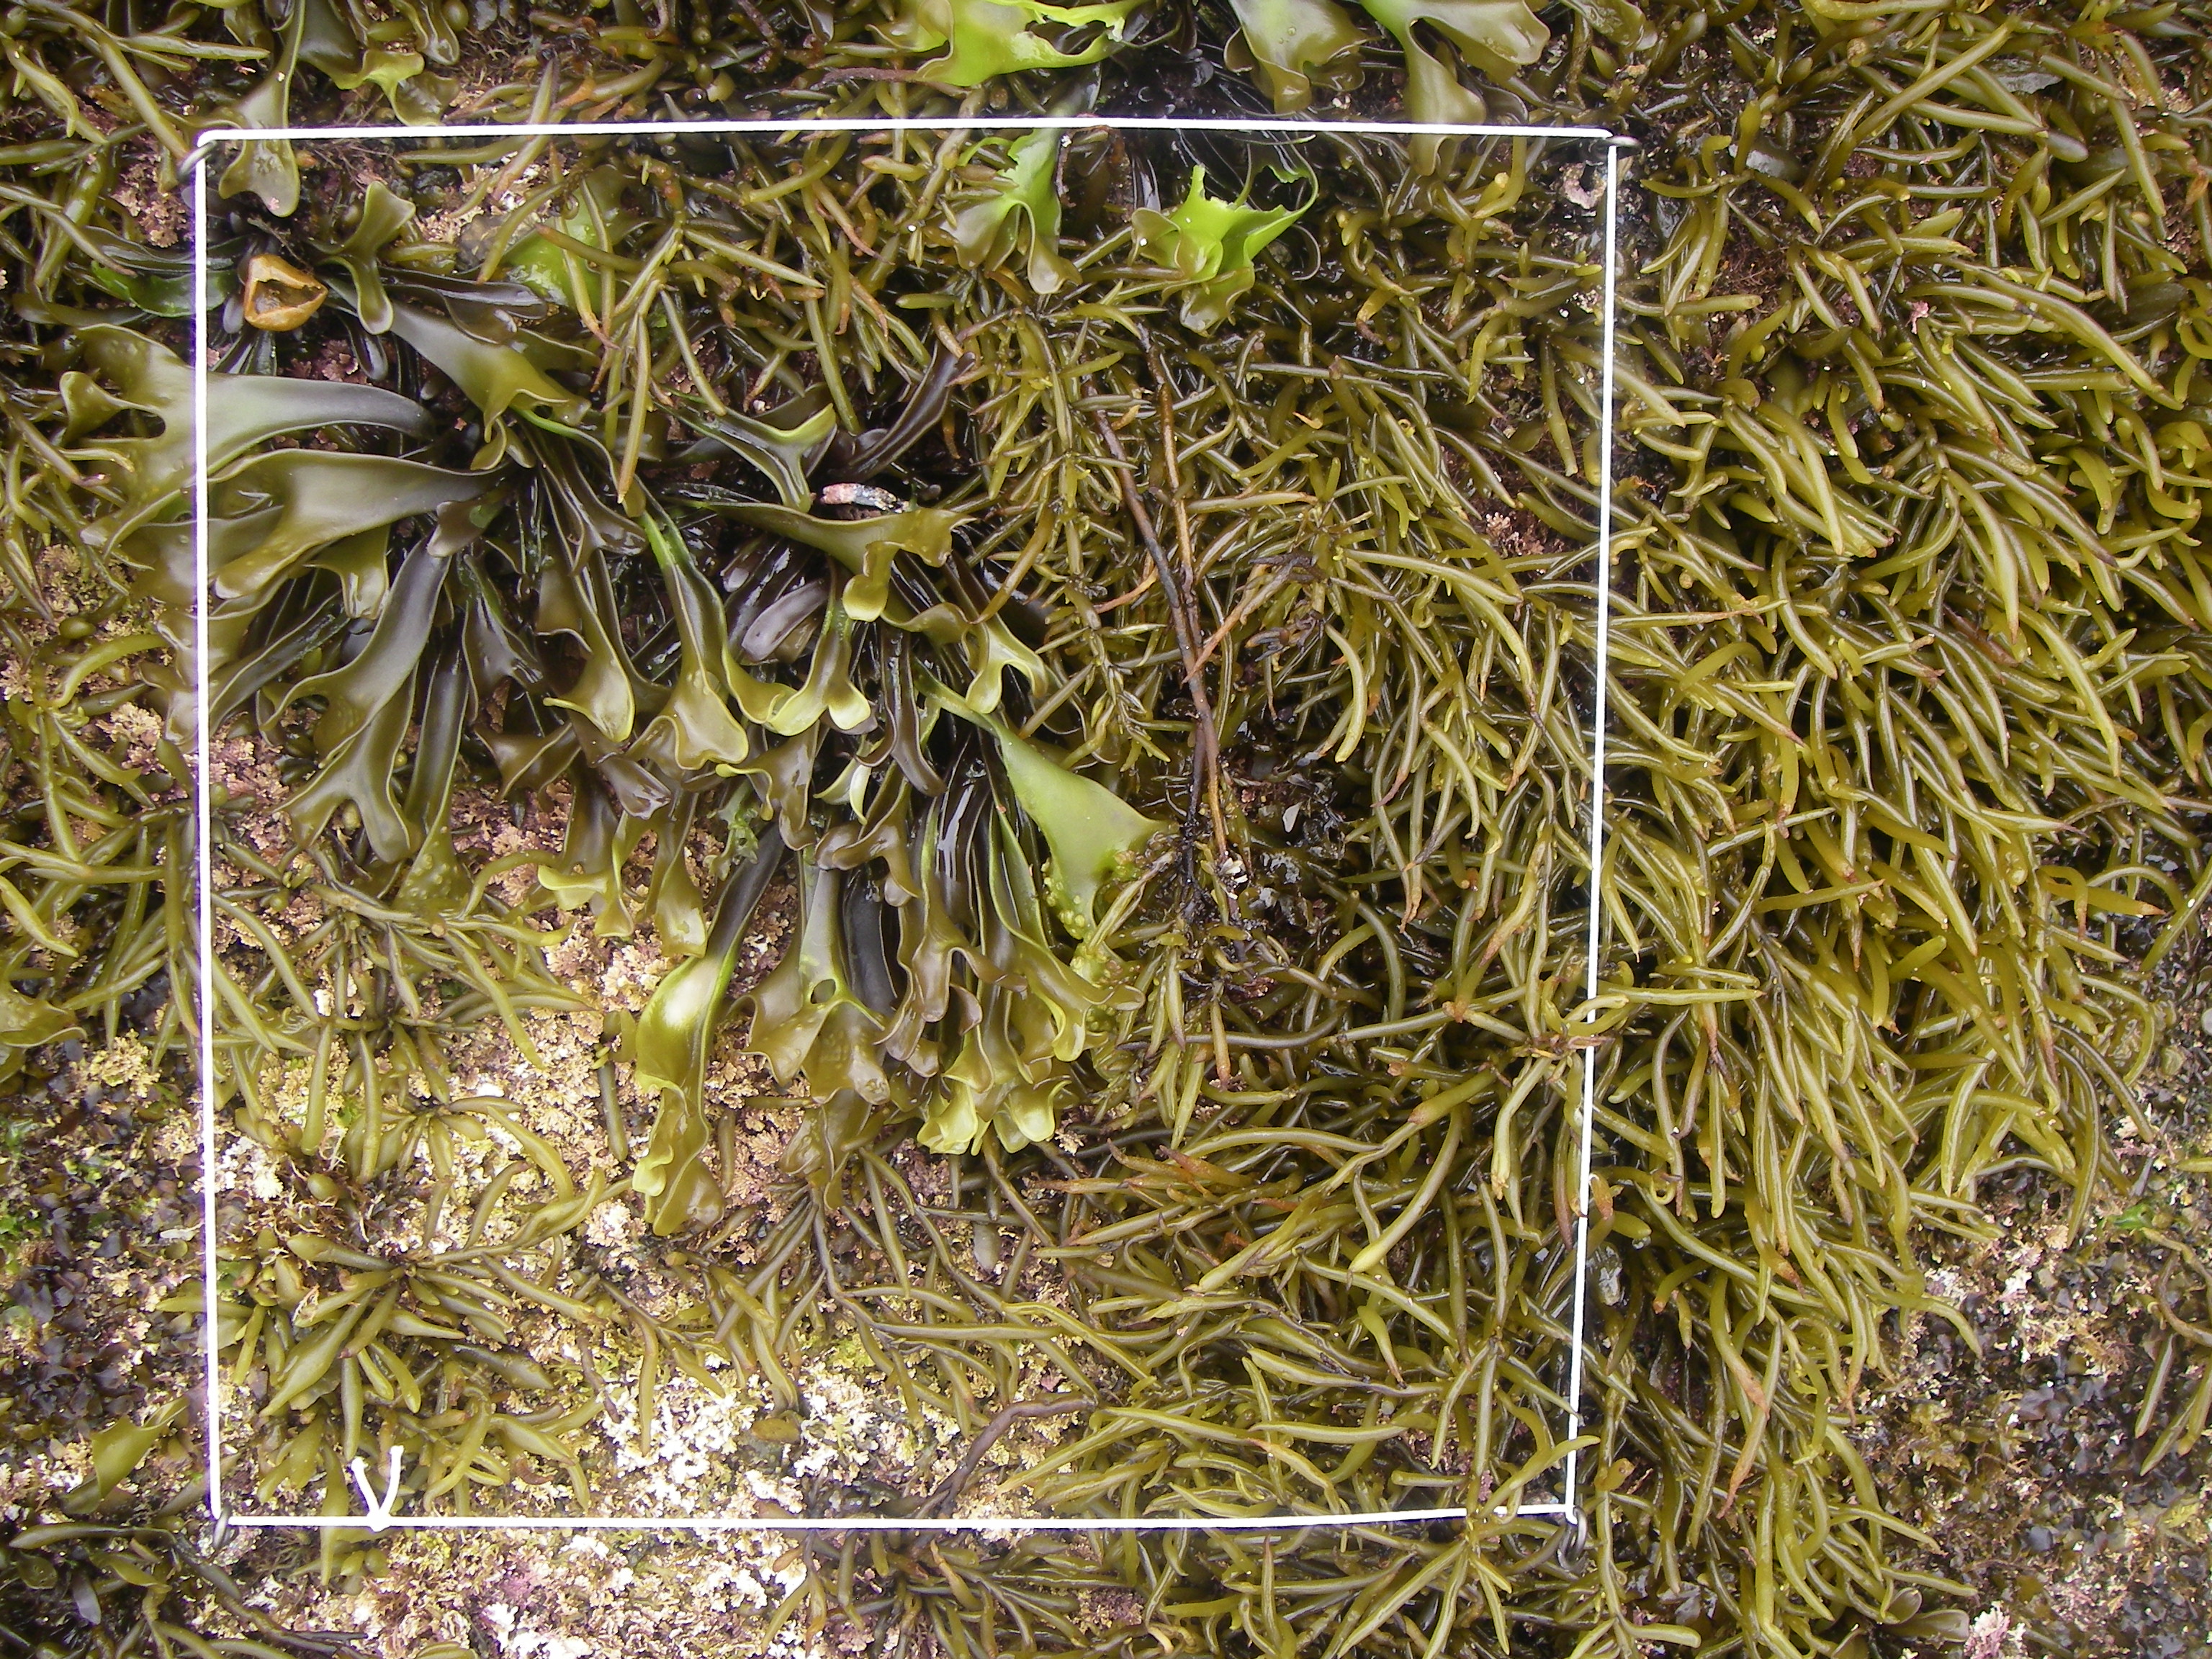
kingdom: Animalia
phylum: Arthropoda
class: Maxillopoda
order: Sessilia
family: Chthamalidae
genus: Chthamalus
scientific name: Chthamalus challengeri
